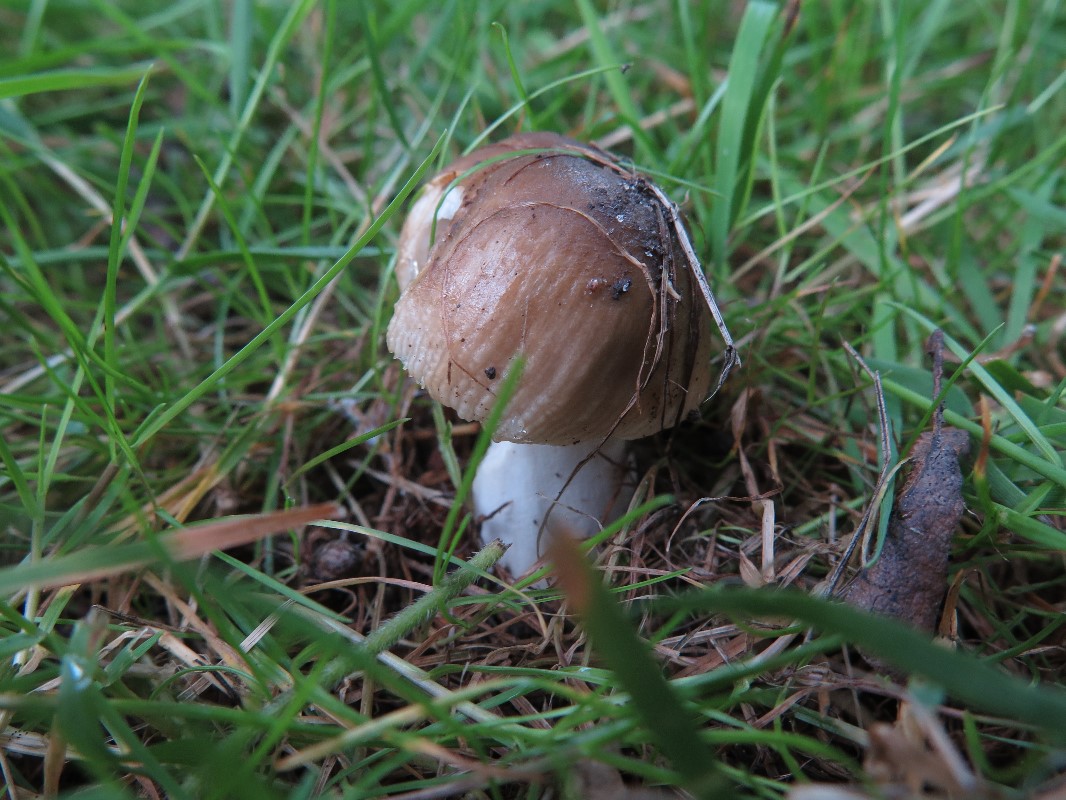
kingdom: Fungi
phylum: Basidiomycota
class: Agaricomycetes
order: Russulales
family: Russulaceae
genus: Russula
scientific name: Russula recondita
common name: mild kam-skørhat
